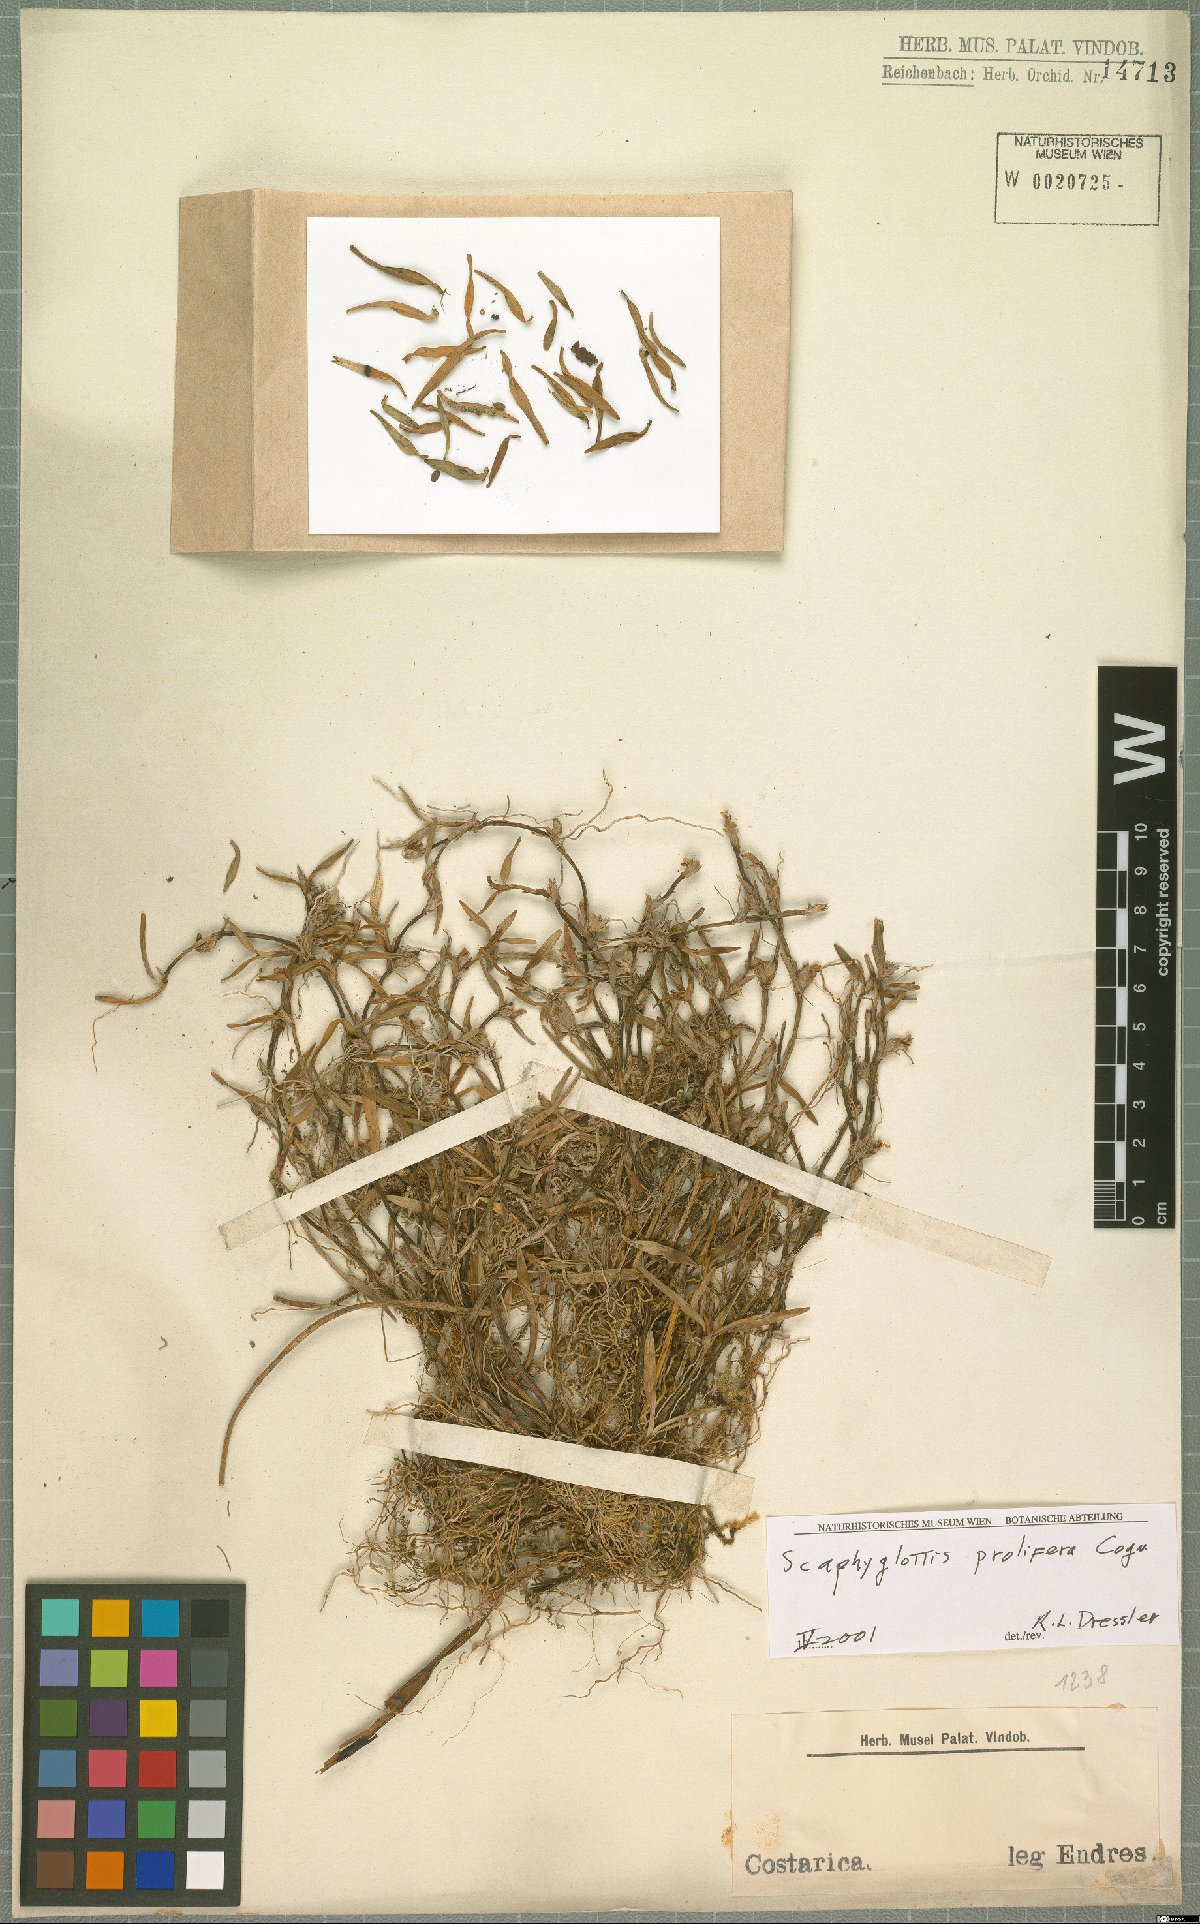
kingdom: Plantae
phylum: Tracheophyta
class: Liliopsida
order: Asparagales
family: Orchidaceae
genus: Scaphyglottis
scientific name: Scaphyglottis prolifera
